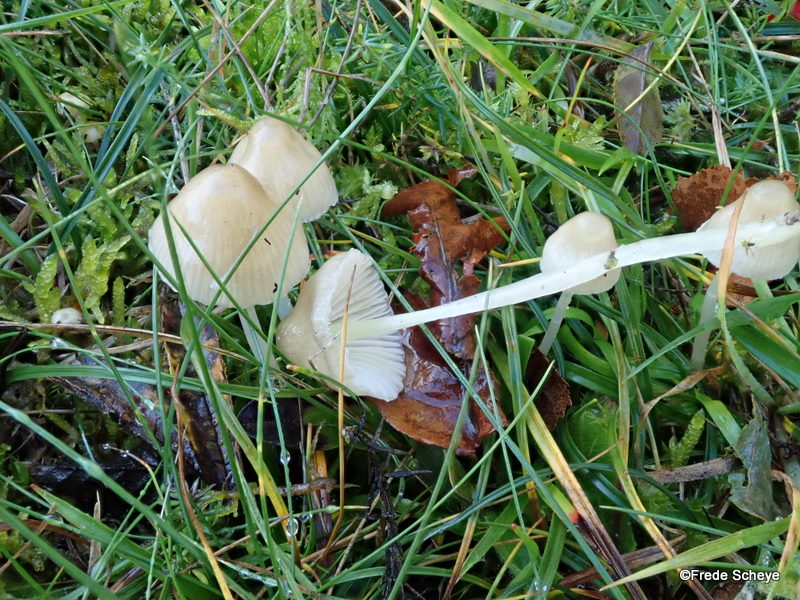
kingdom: Fungi
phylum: Basidiomycota
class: Agaricomycetes
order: Agaricales
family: Mycenaceae
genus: Mycena
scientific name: Mycena epipterygia
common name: gulstokket huesvamp
